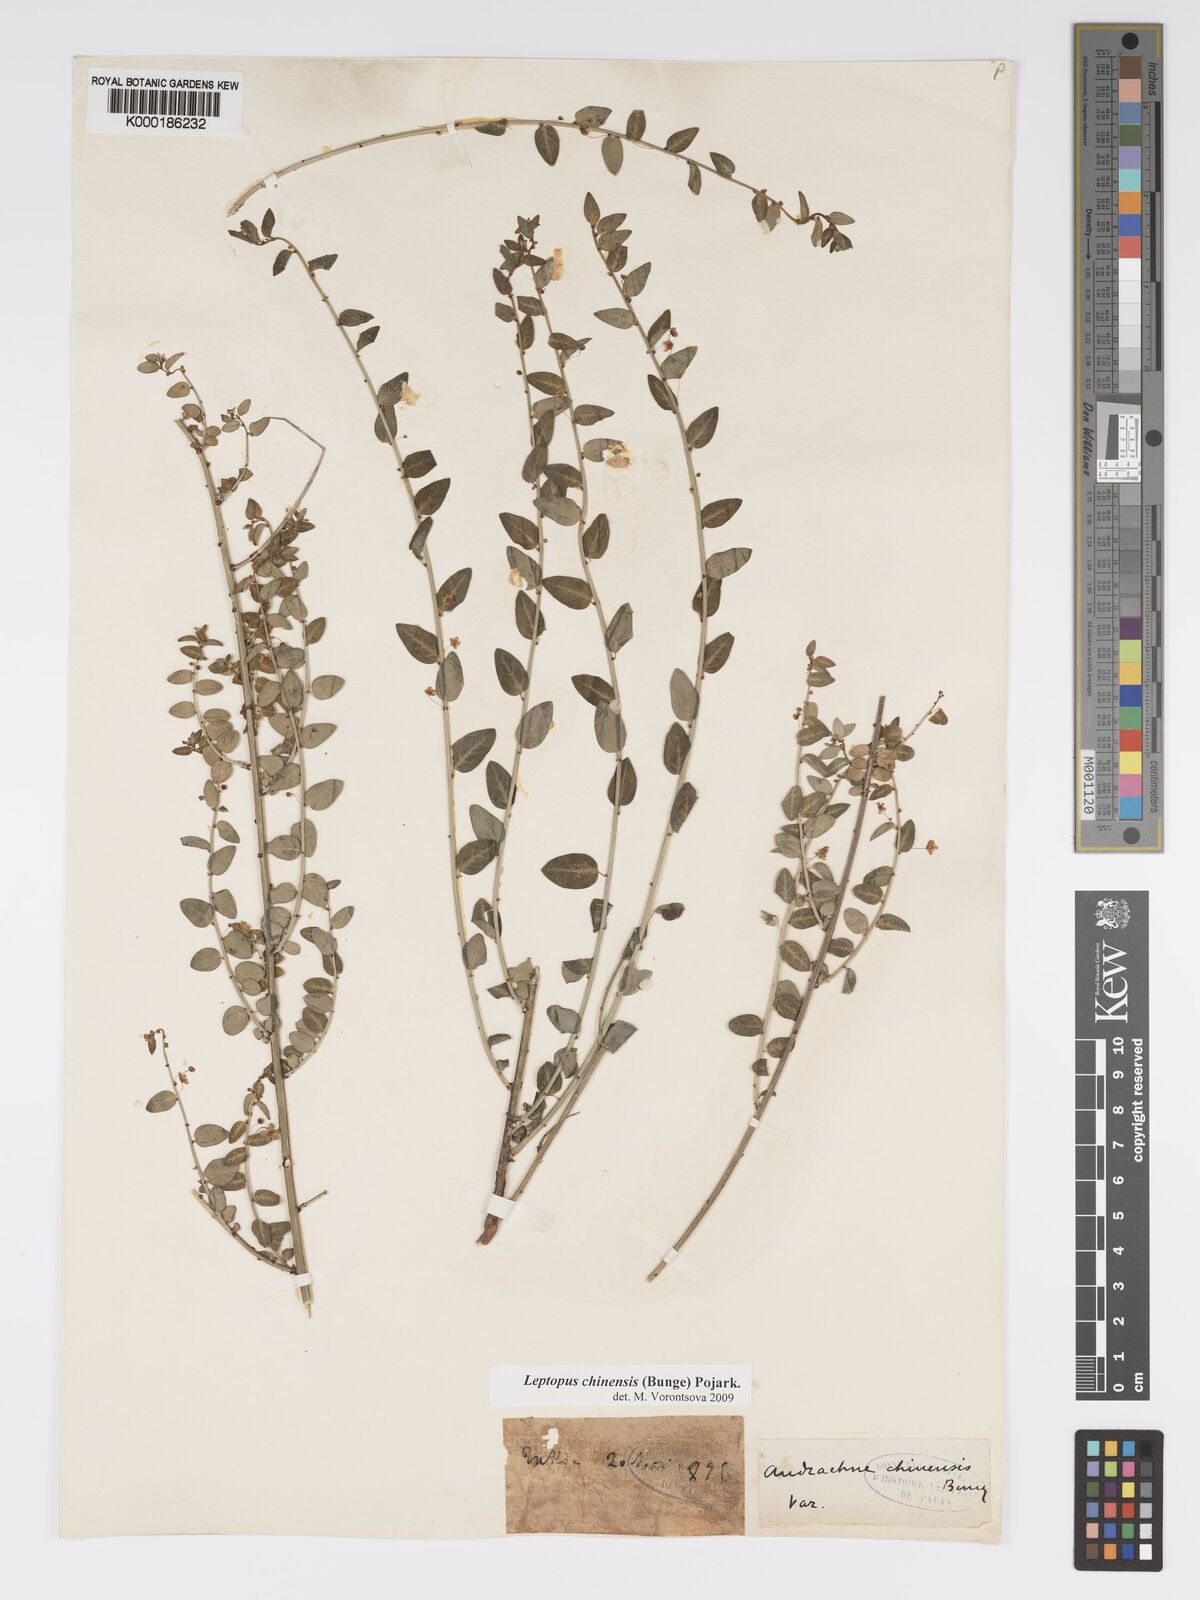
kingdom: Plantae
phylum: Tracheophyta
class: Magnoliopsida
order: Malpighiales
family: Phyllanthaceae
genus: Leptopus
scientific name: Leptopus chinensis
